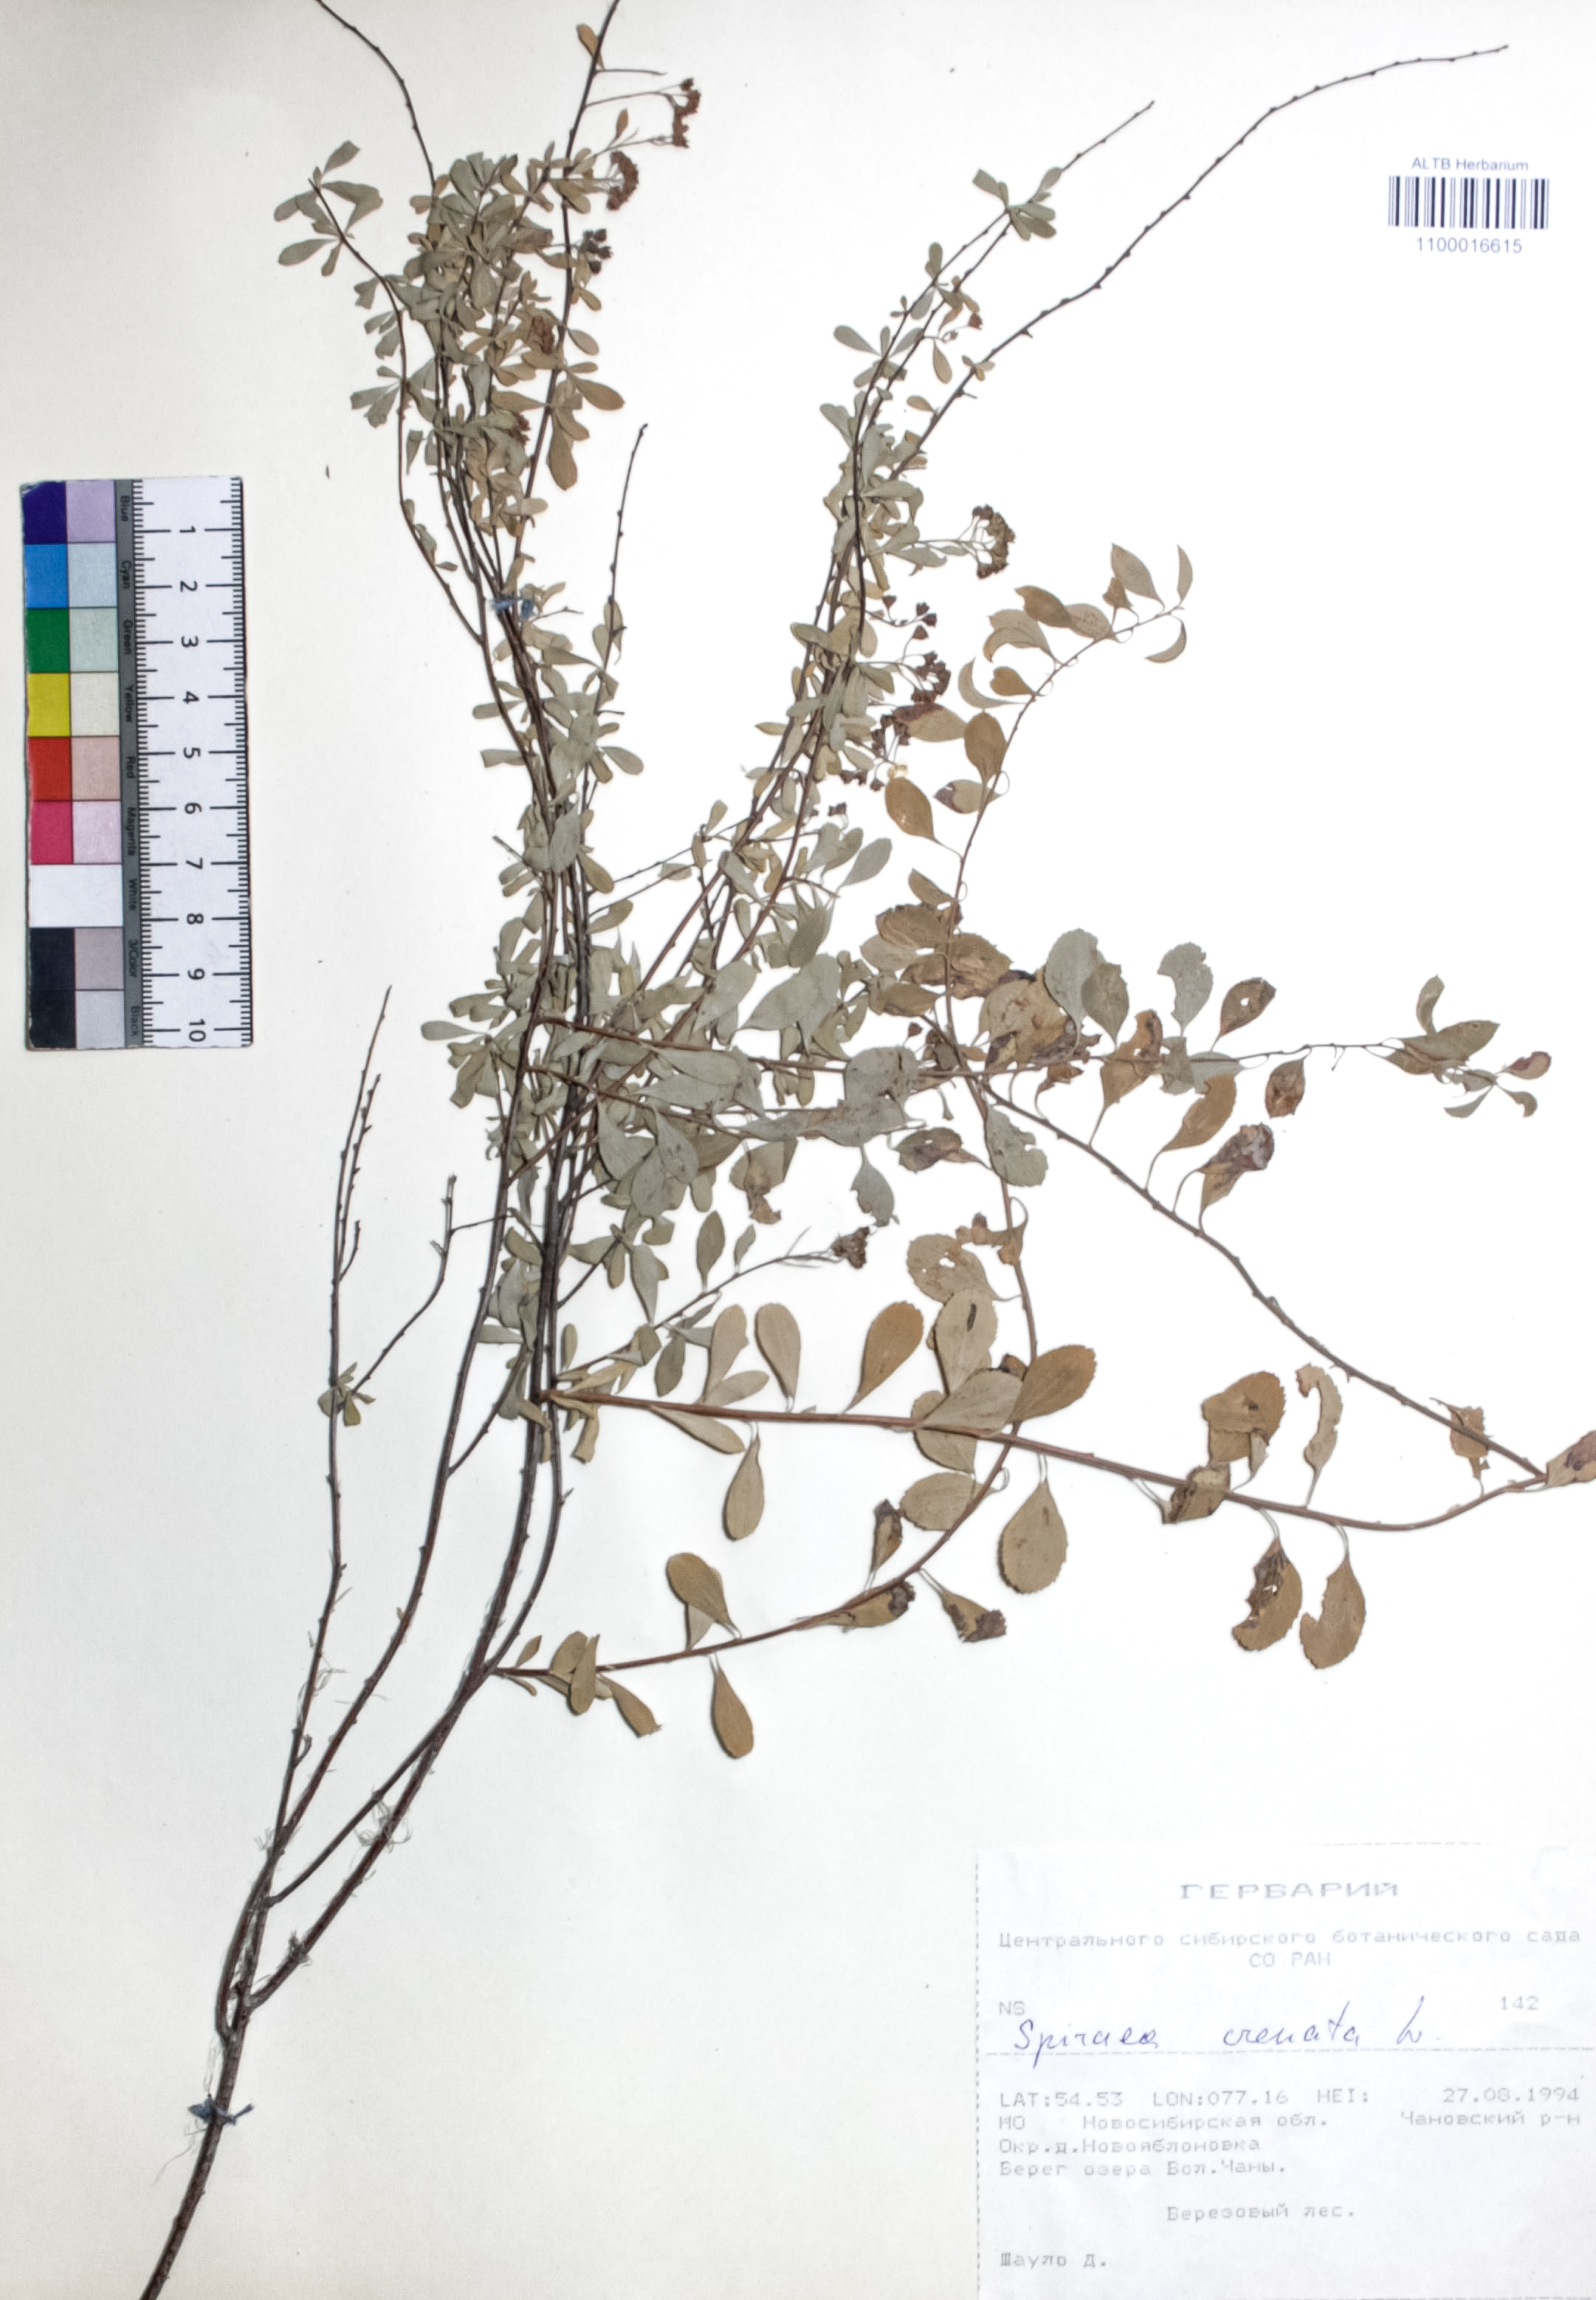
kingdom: Plantae
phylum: Tracheophyta
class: Magnoliopsida
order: Rosales
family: Rosaceae
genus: Spiraea
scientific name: Spiraea crenata
